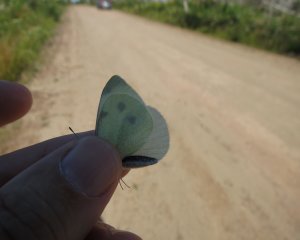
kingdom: Animalia
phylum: Arthropoda
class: Insecta
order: Lepidoptera
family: Pieridae
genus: Pieris
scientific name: Pieris rapae
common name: Cabbage White
